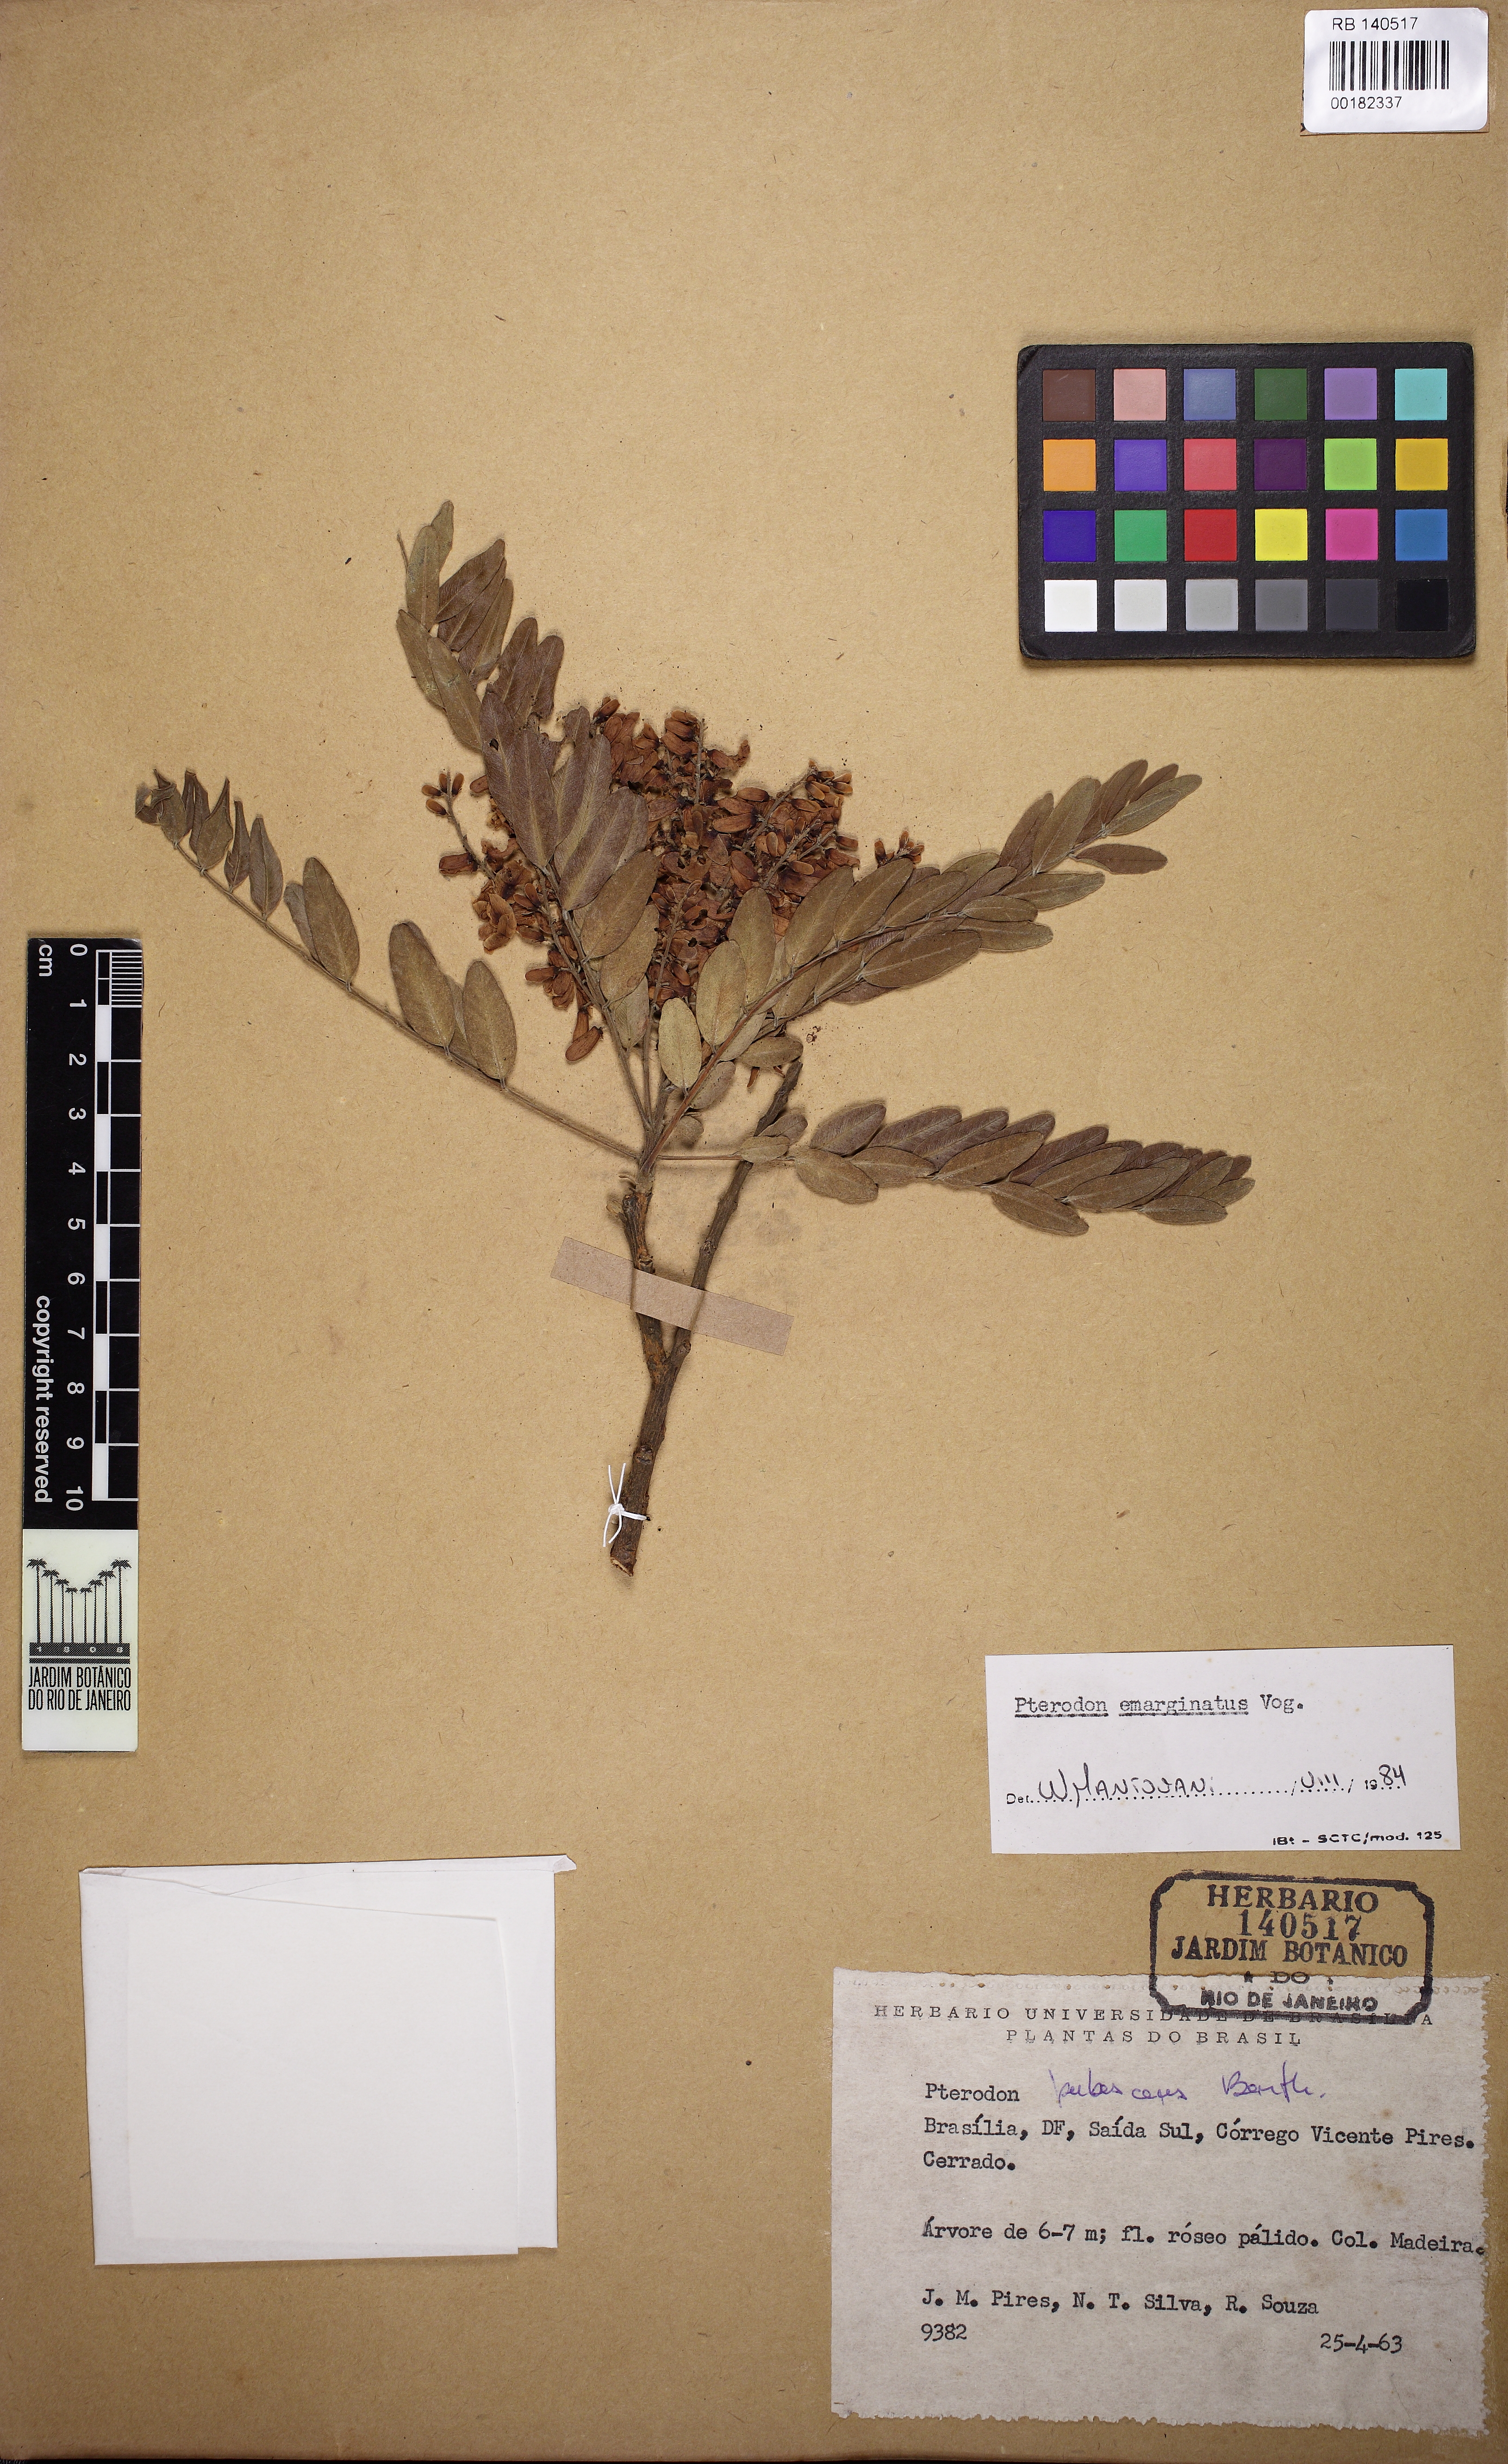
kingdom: Plantae
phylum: Tracheophyta
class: Magnoliopsida
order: Fabales
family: Fabaceae
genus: Pterodon
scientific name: Pterodon emarginatus
